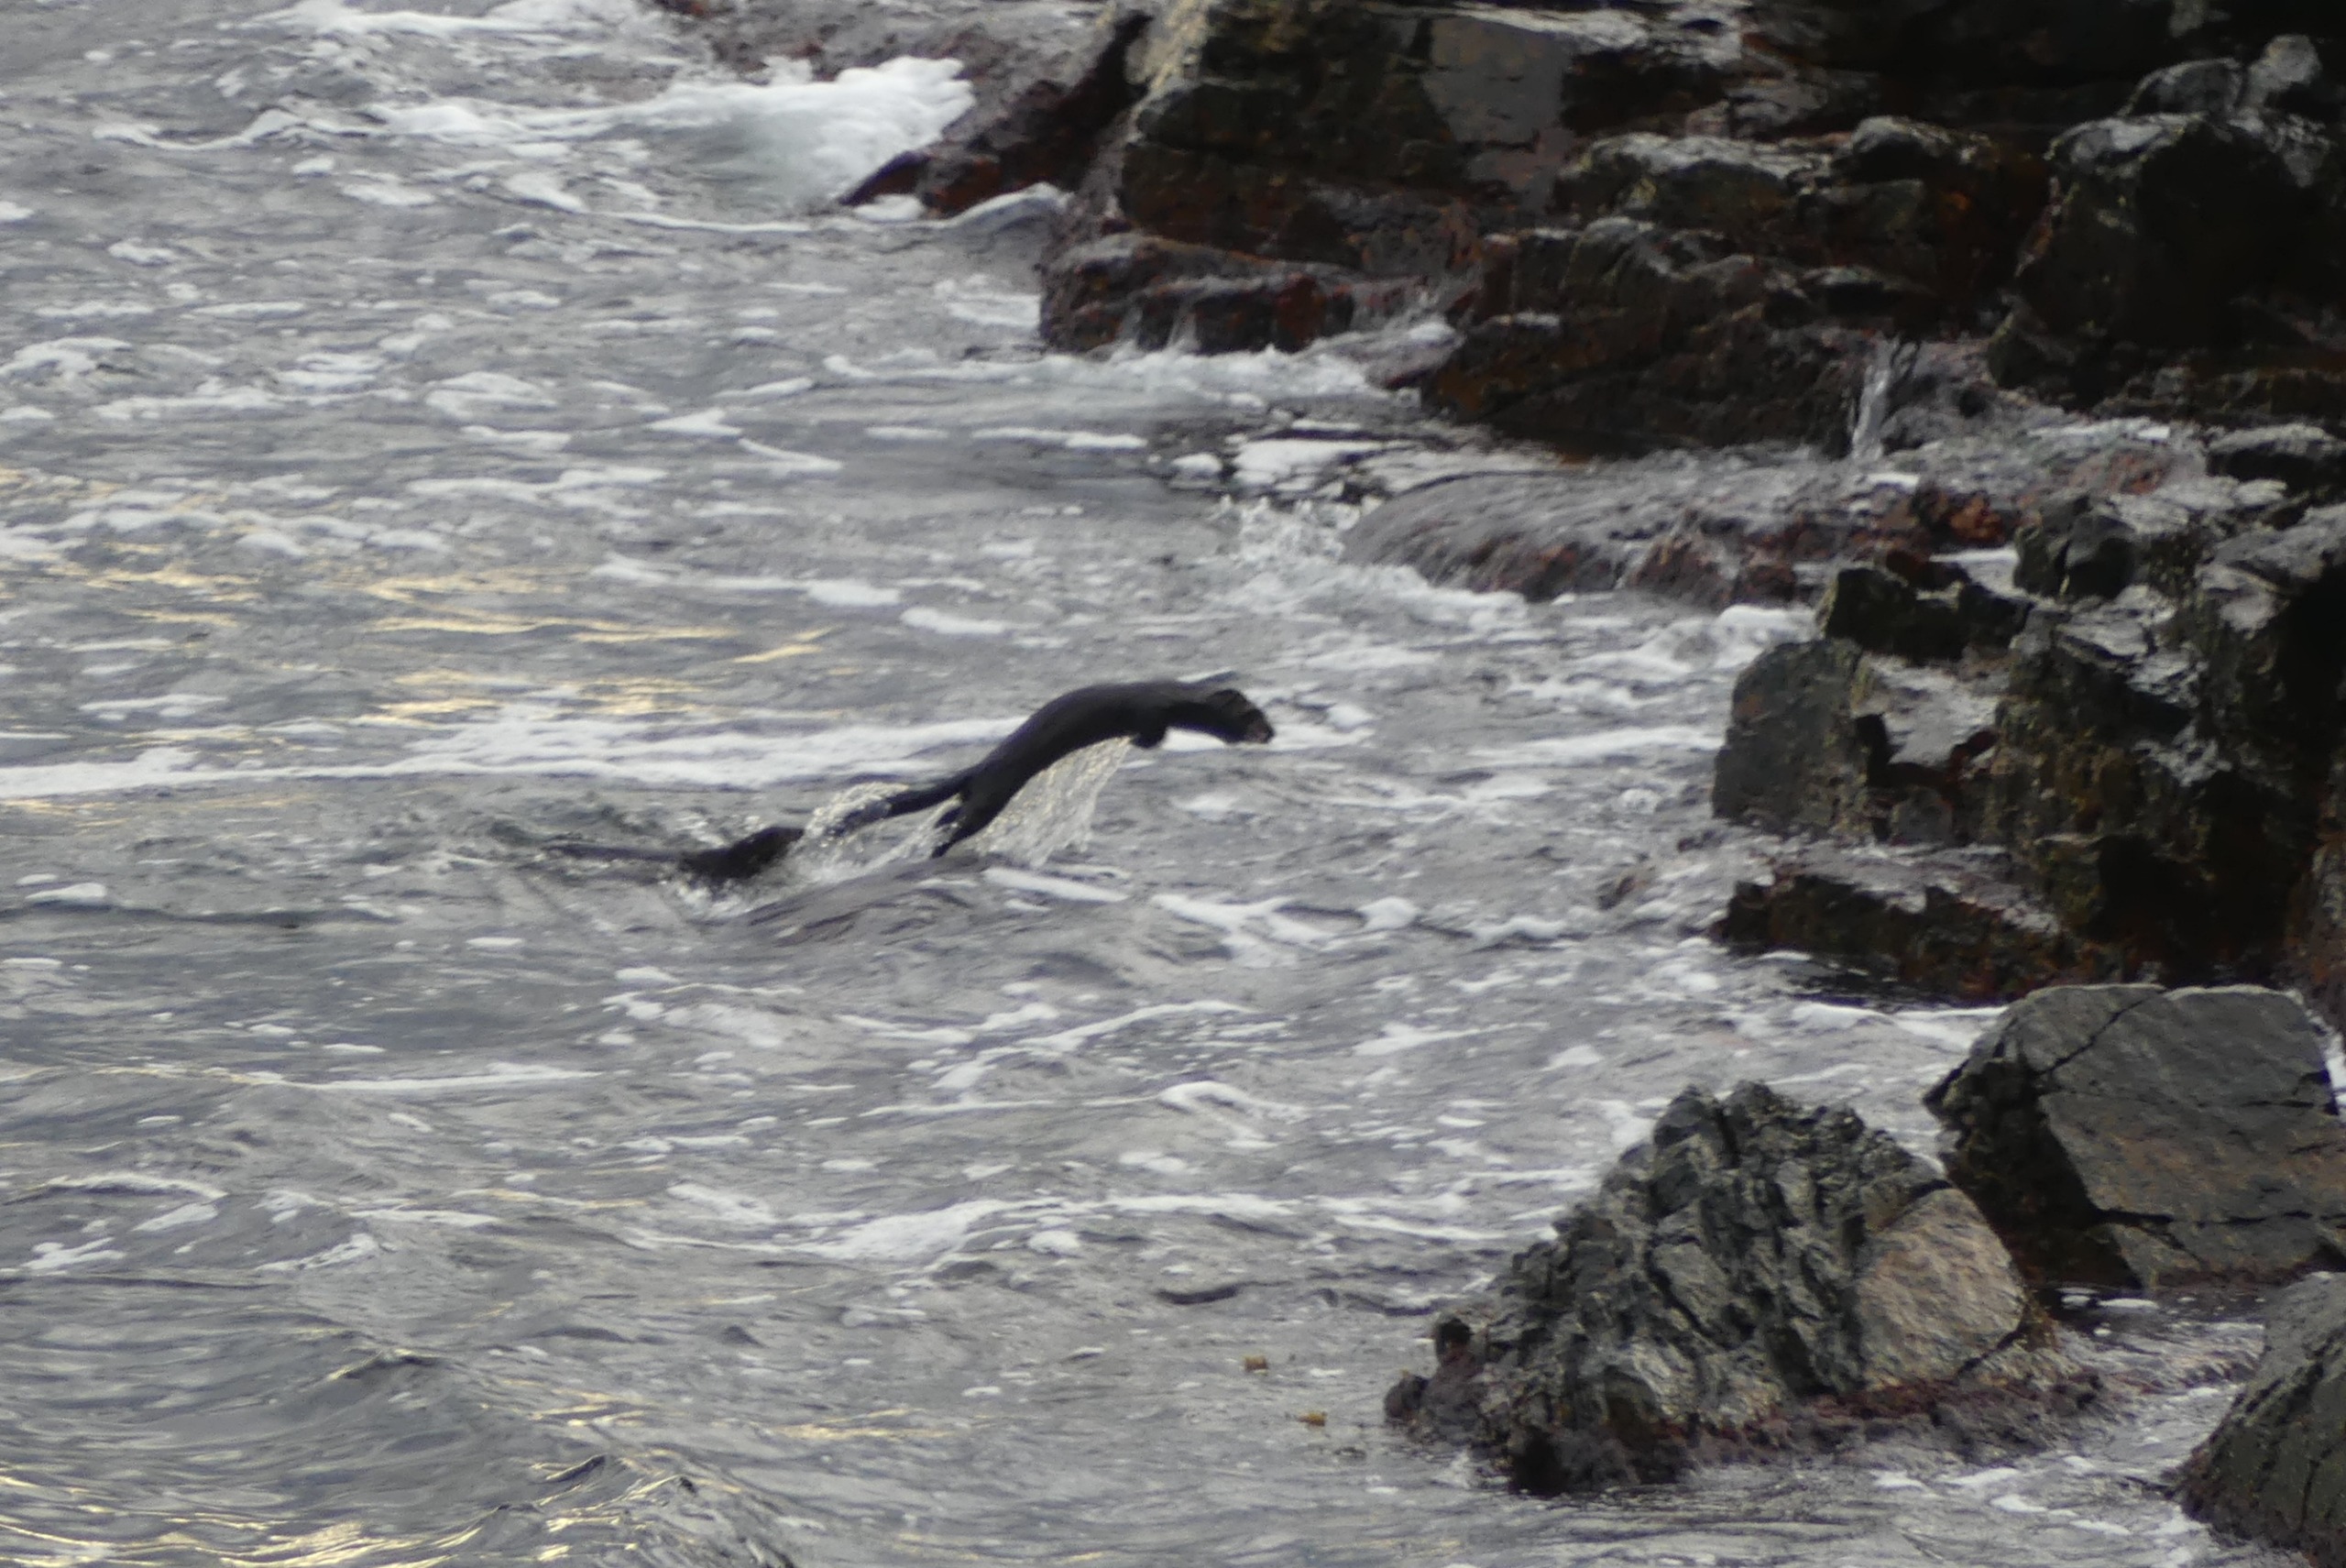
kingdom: Animalia
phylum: Chordata
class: Mammalia
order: Carnivora
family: Mustelidae
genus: Mustela
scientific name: Mustela vison
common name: Mink
